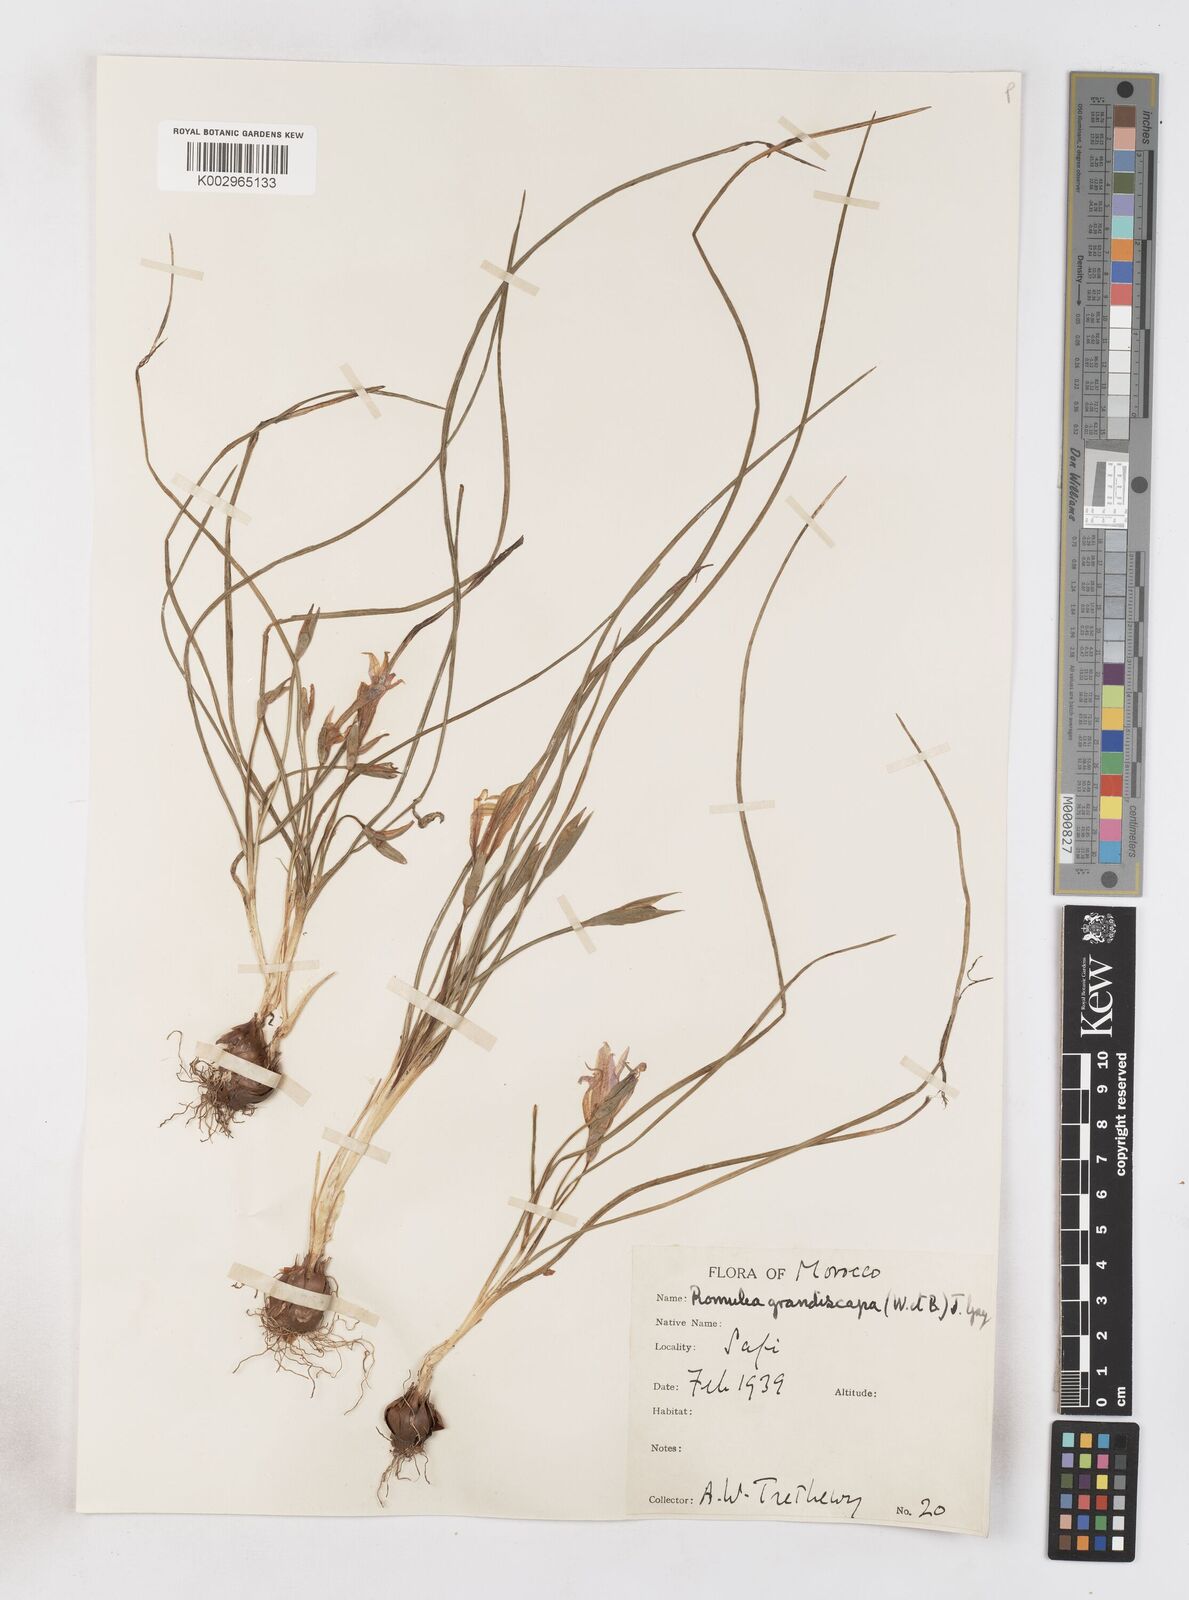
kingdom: Plantae
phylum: Tracheophyta
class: Liliopsida
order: Asparagales
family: Iridaceae
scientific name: Iridaceae
